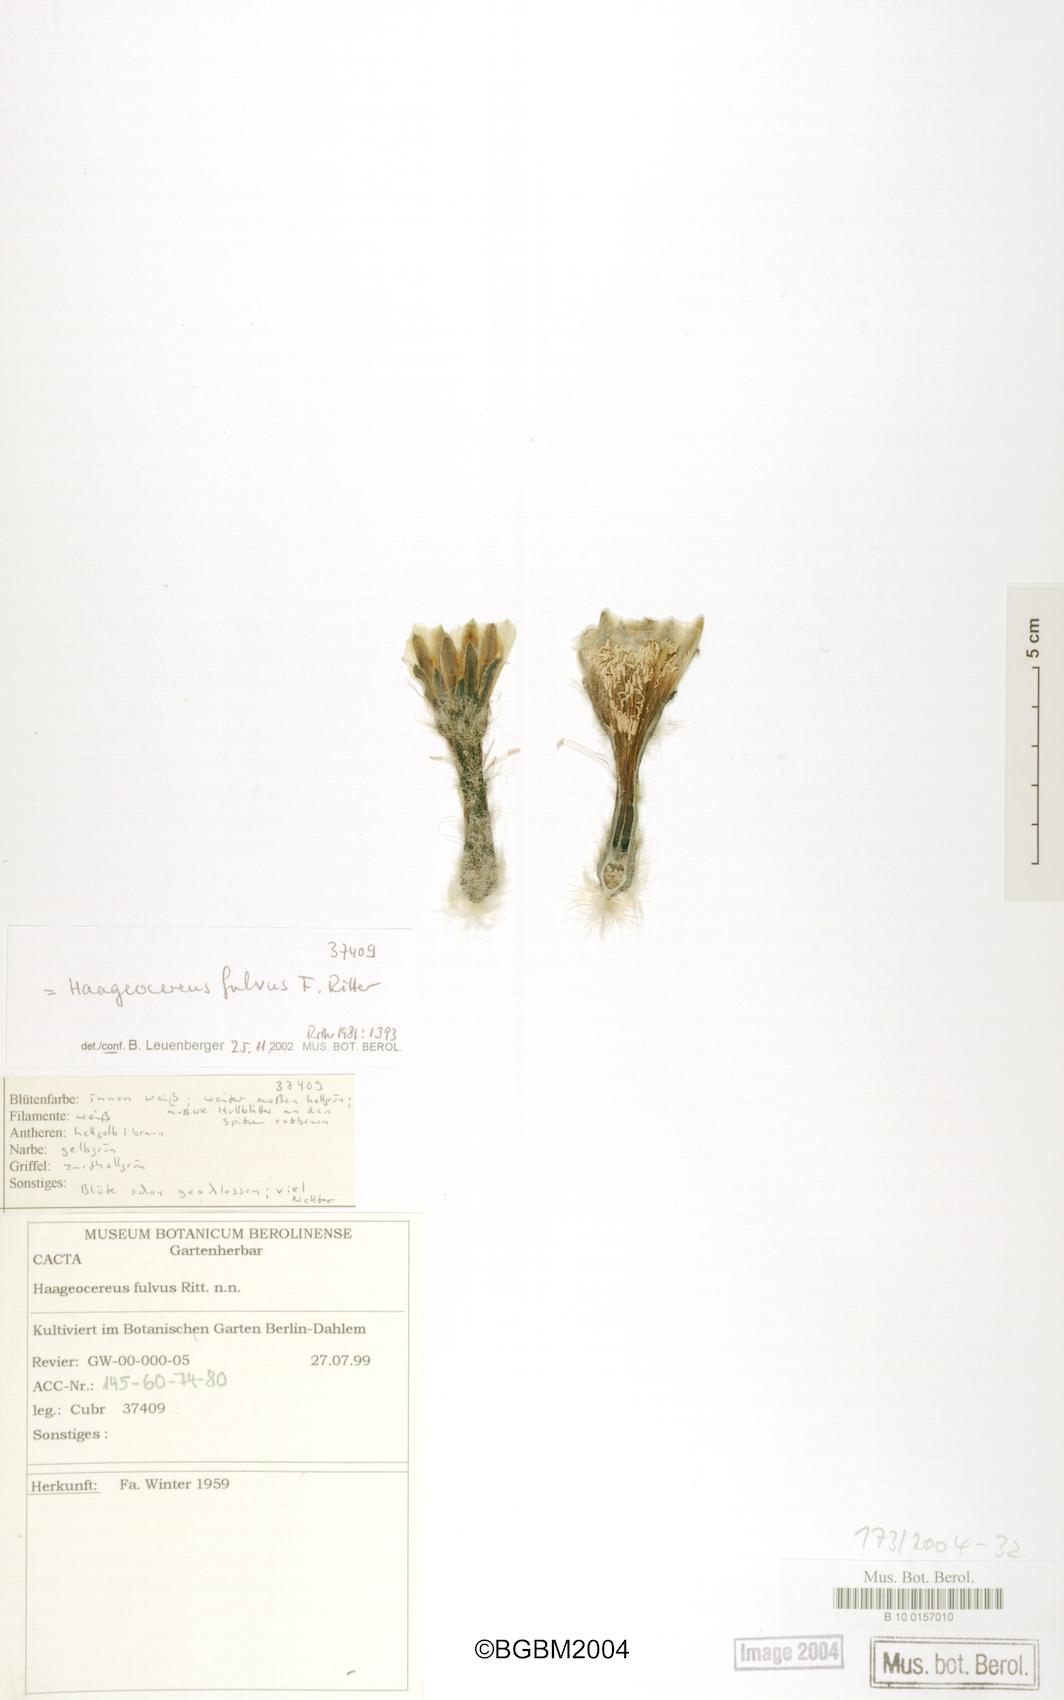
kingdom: Plantae
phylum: Tracheophyta
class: Magnoliopsida
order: Caryophyllales
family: Cactaceae
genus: Haageocereus
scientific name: Haageocereus acranthus
